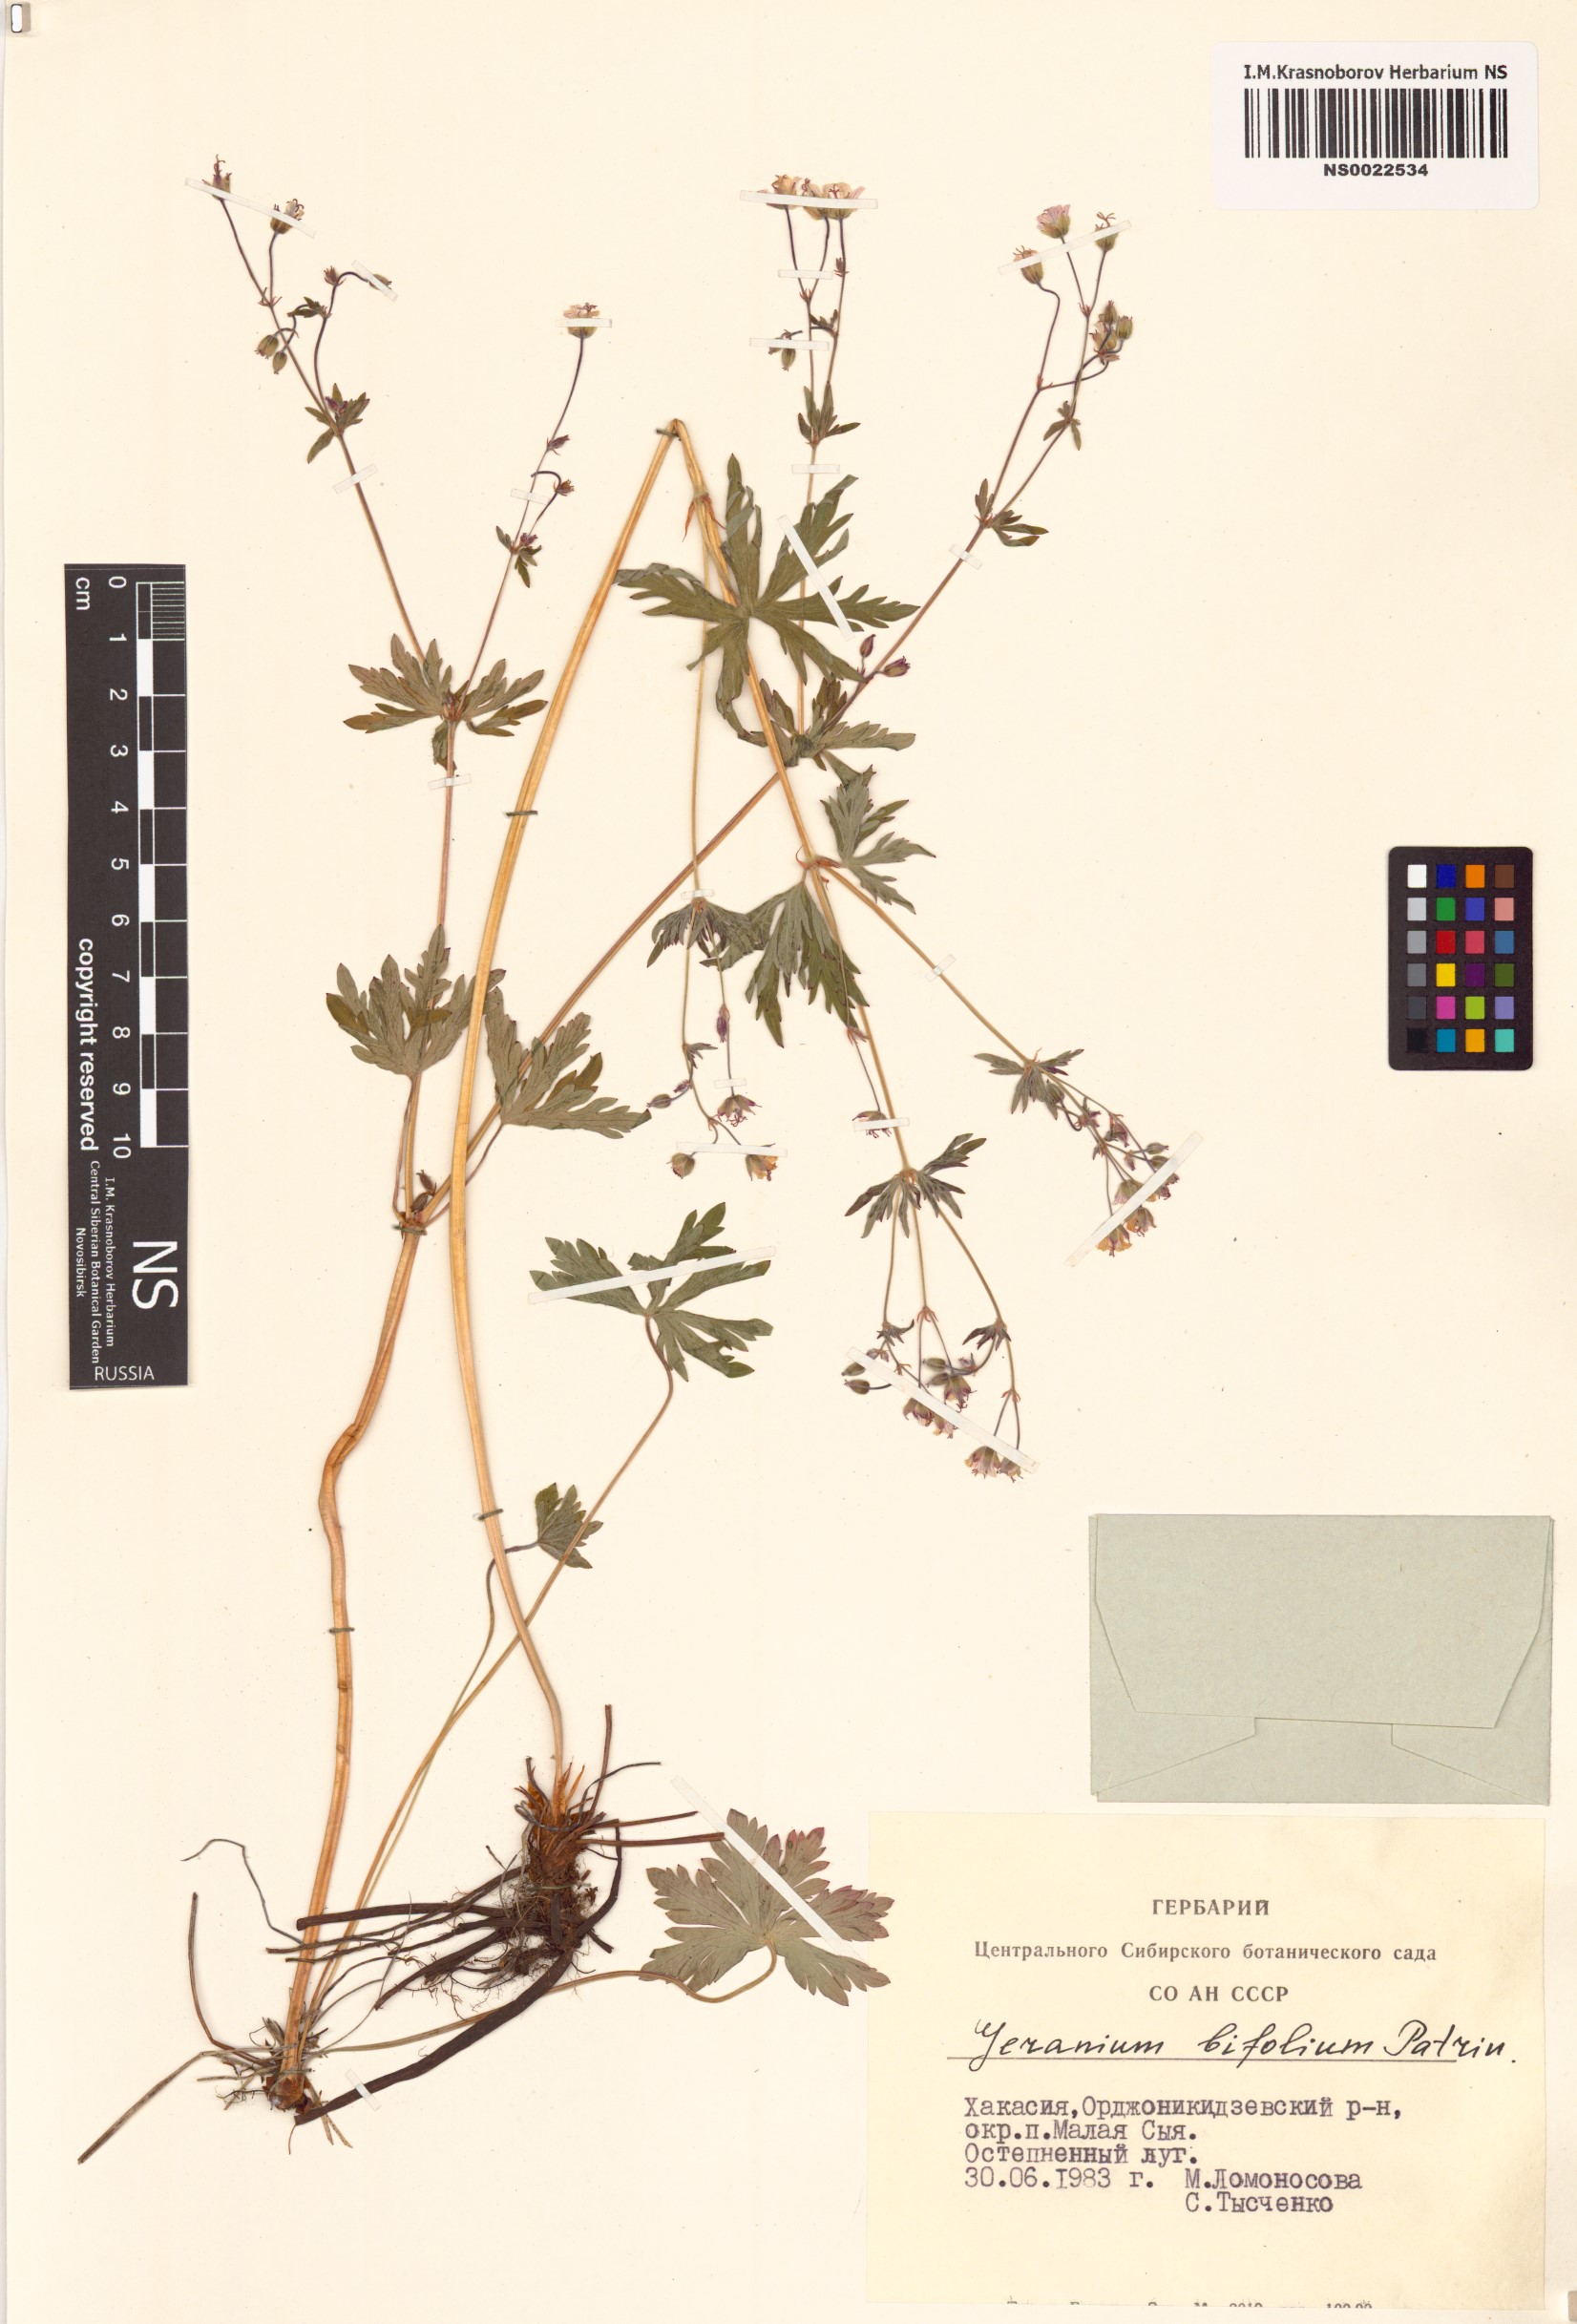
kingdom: Plantae
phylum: Tracheophyta
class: Magnoliopsida
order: Geraniales
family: Geraniaceae
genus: Geranium
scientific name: Geranium pseudosibiricum
